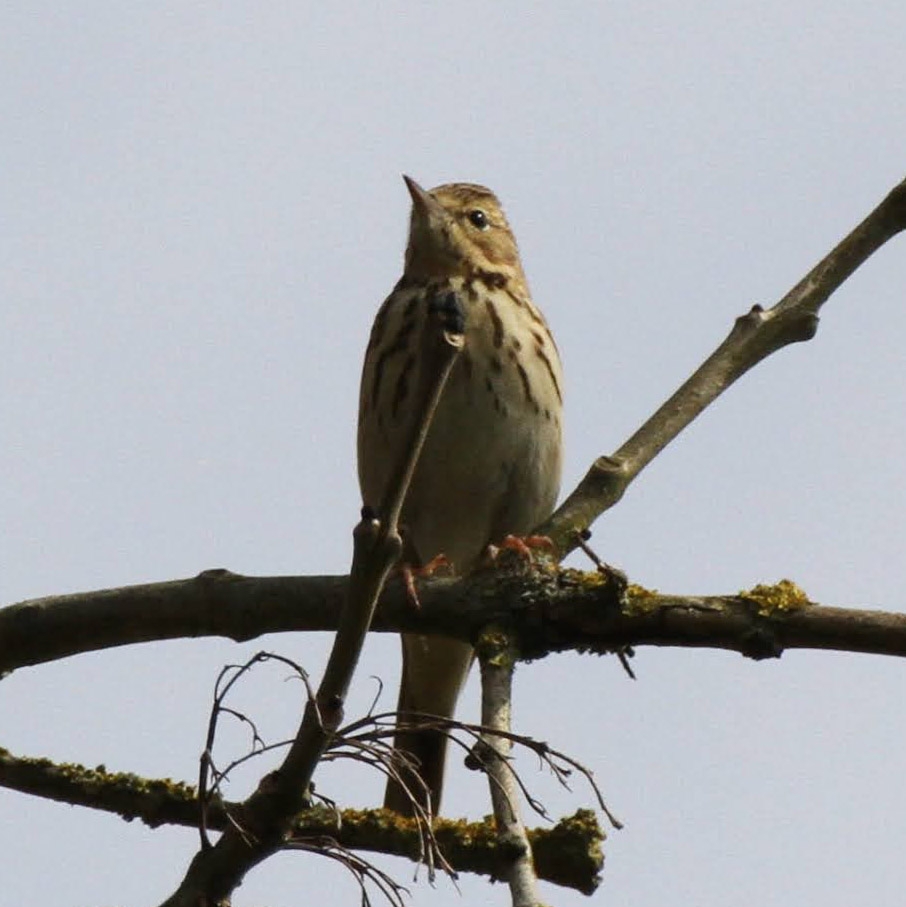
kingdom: Animalia
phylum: Chordata
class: Aves
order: Passeriformes
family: Motacillidae
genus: Anthus
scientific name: Anthus trivialis
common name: Skovpiber
